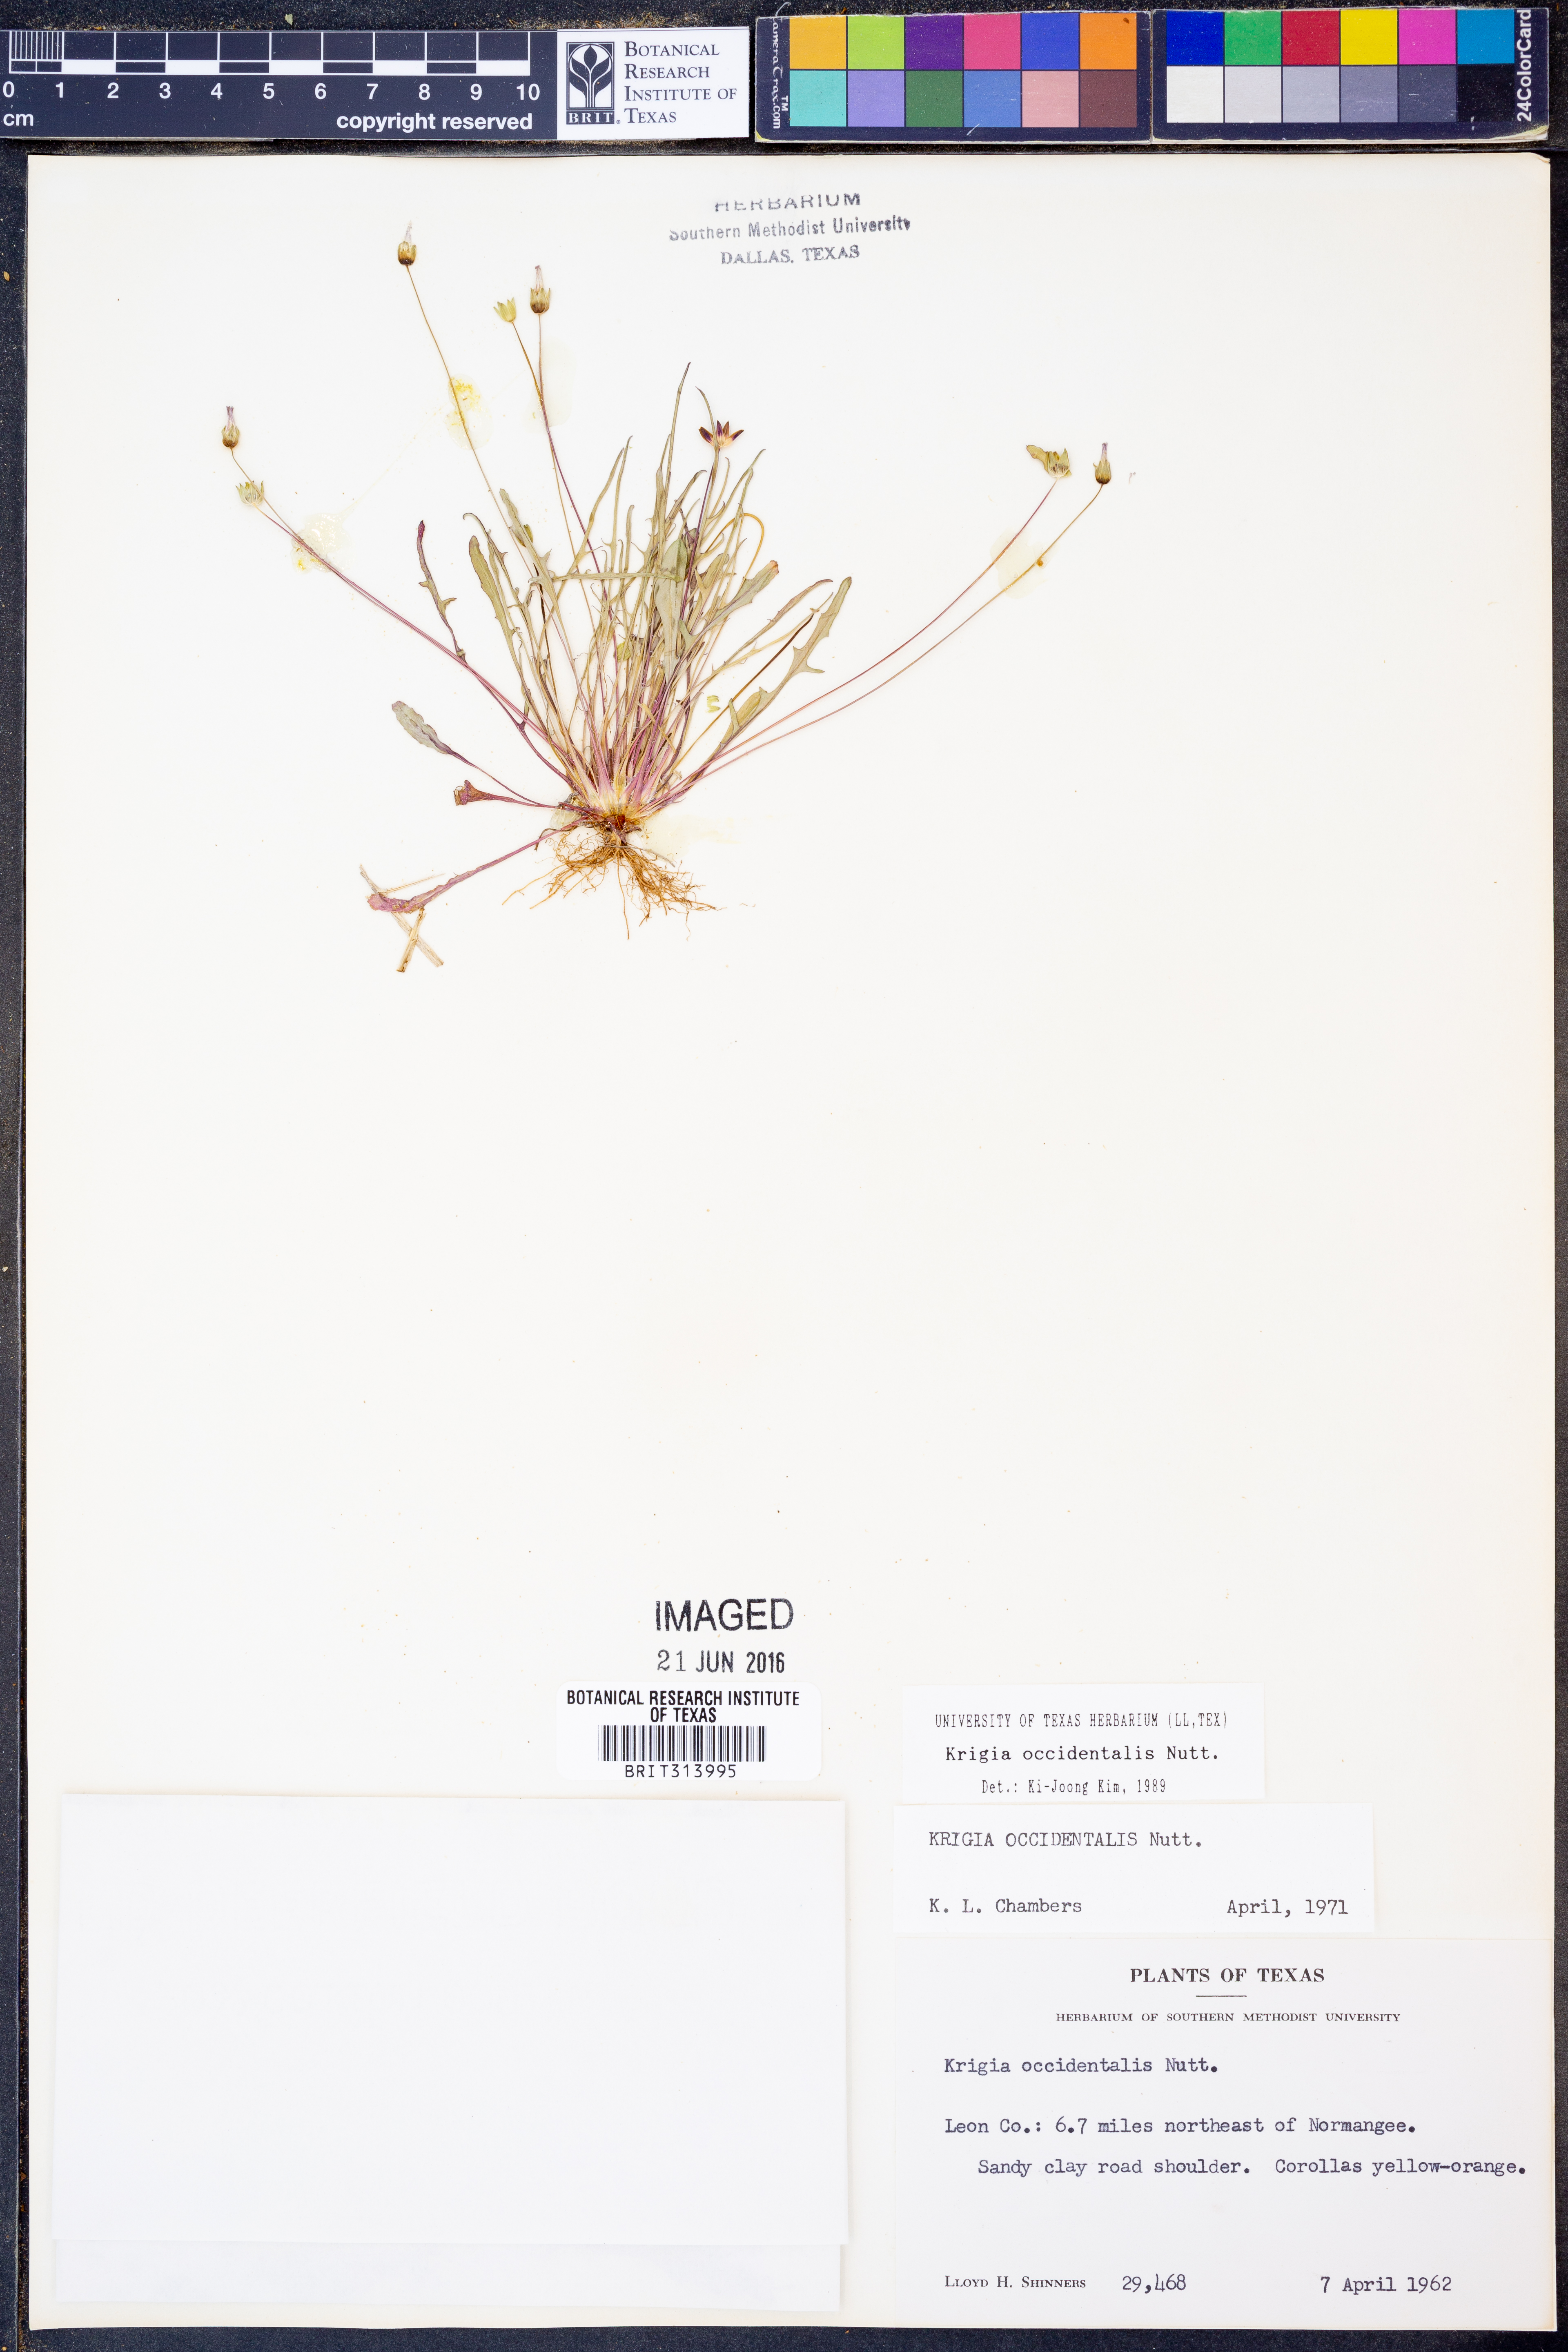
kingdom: Plantae
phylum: Tracheophyta
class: Magnoliopsida
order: Asterales
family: Asteraceae
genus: Krigia
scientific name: Krigia occidentalis
